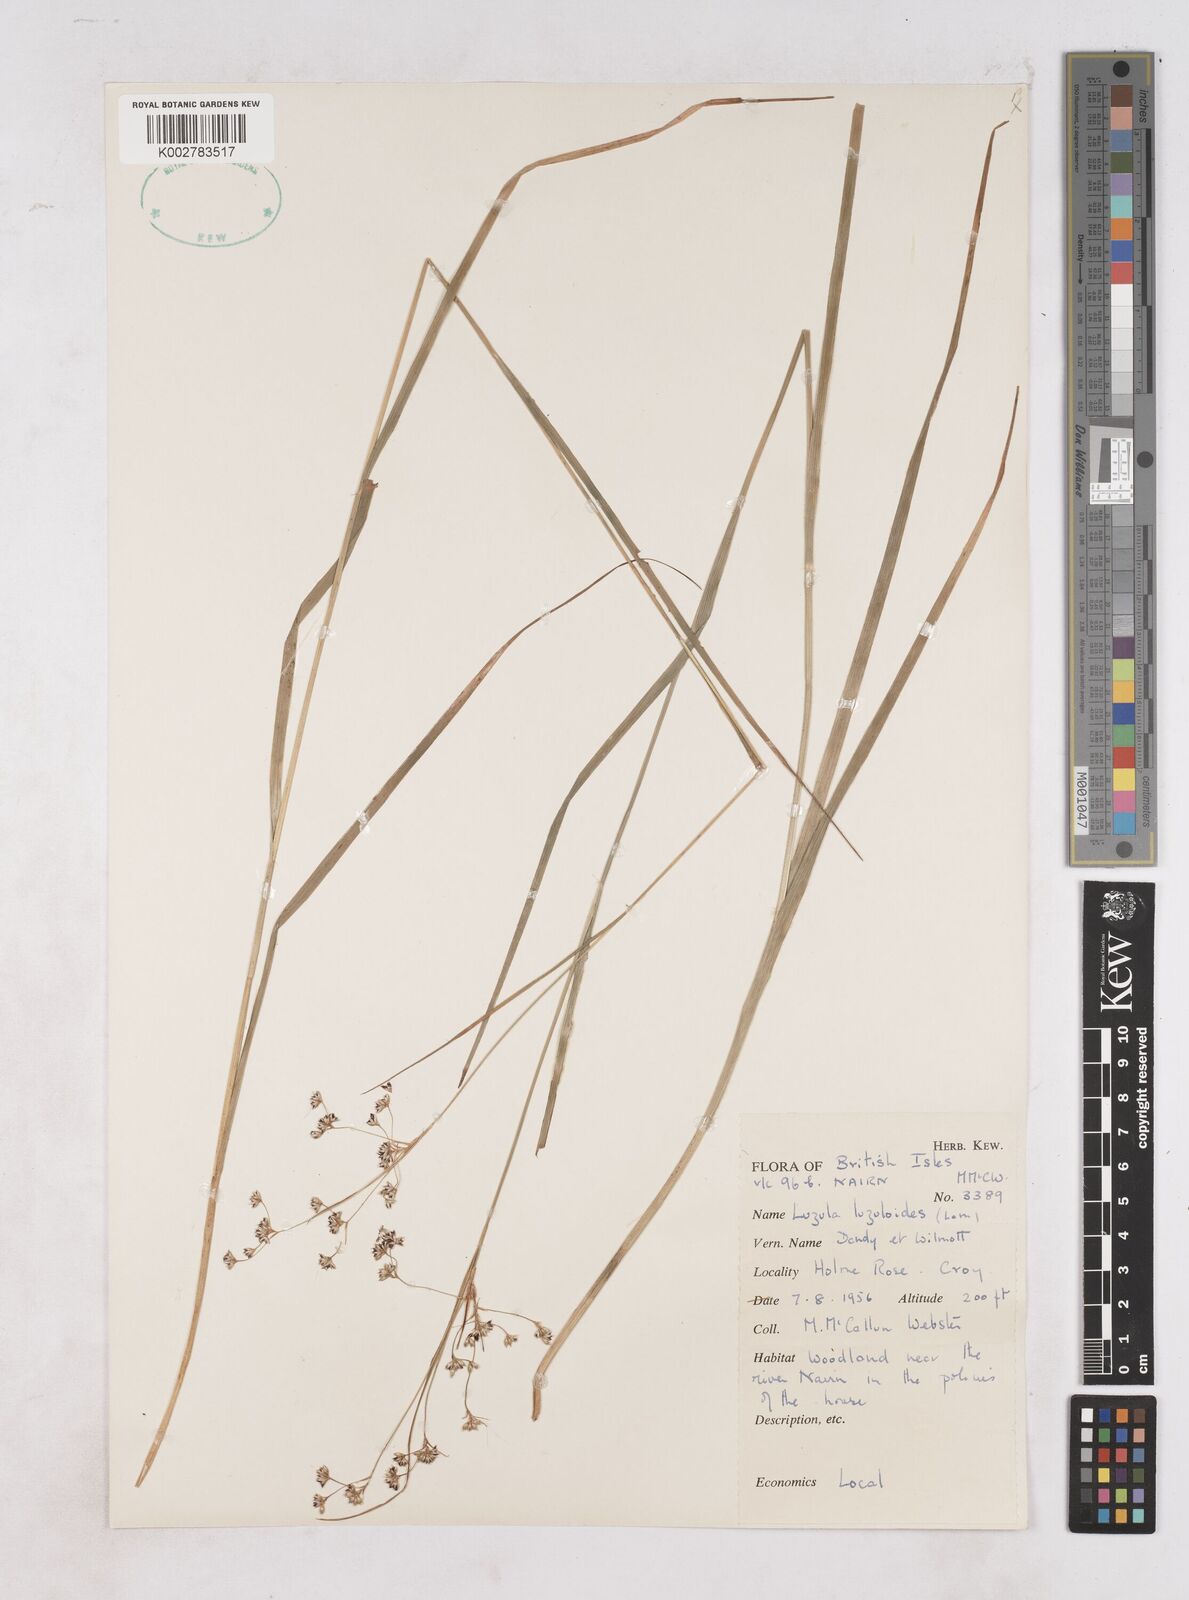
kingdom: Plantae
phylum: Tracheophyta
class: Liliopsida
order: Poales
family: Juncaceae
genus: Luzula
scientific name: Luzula luzuloides
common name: White wood-rush
